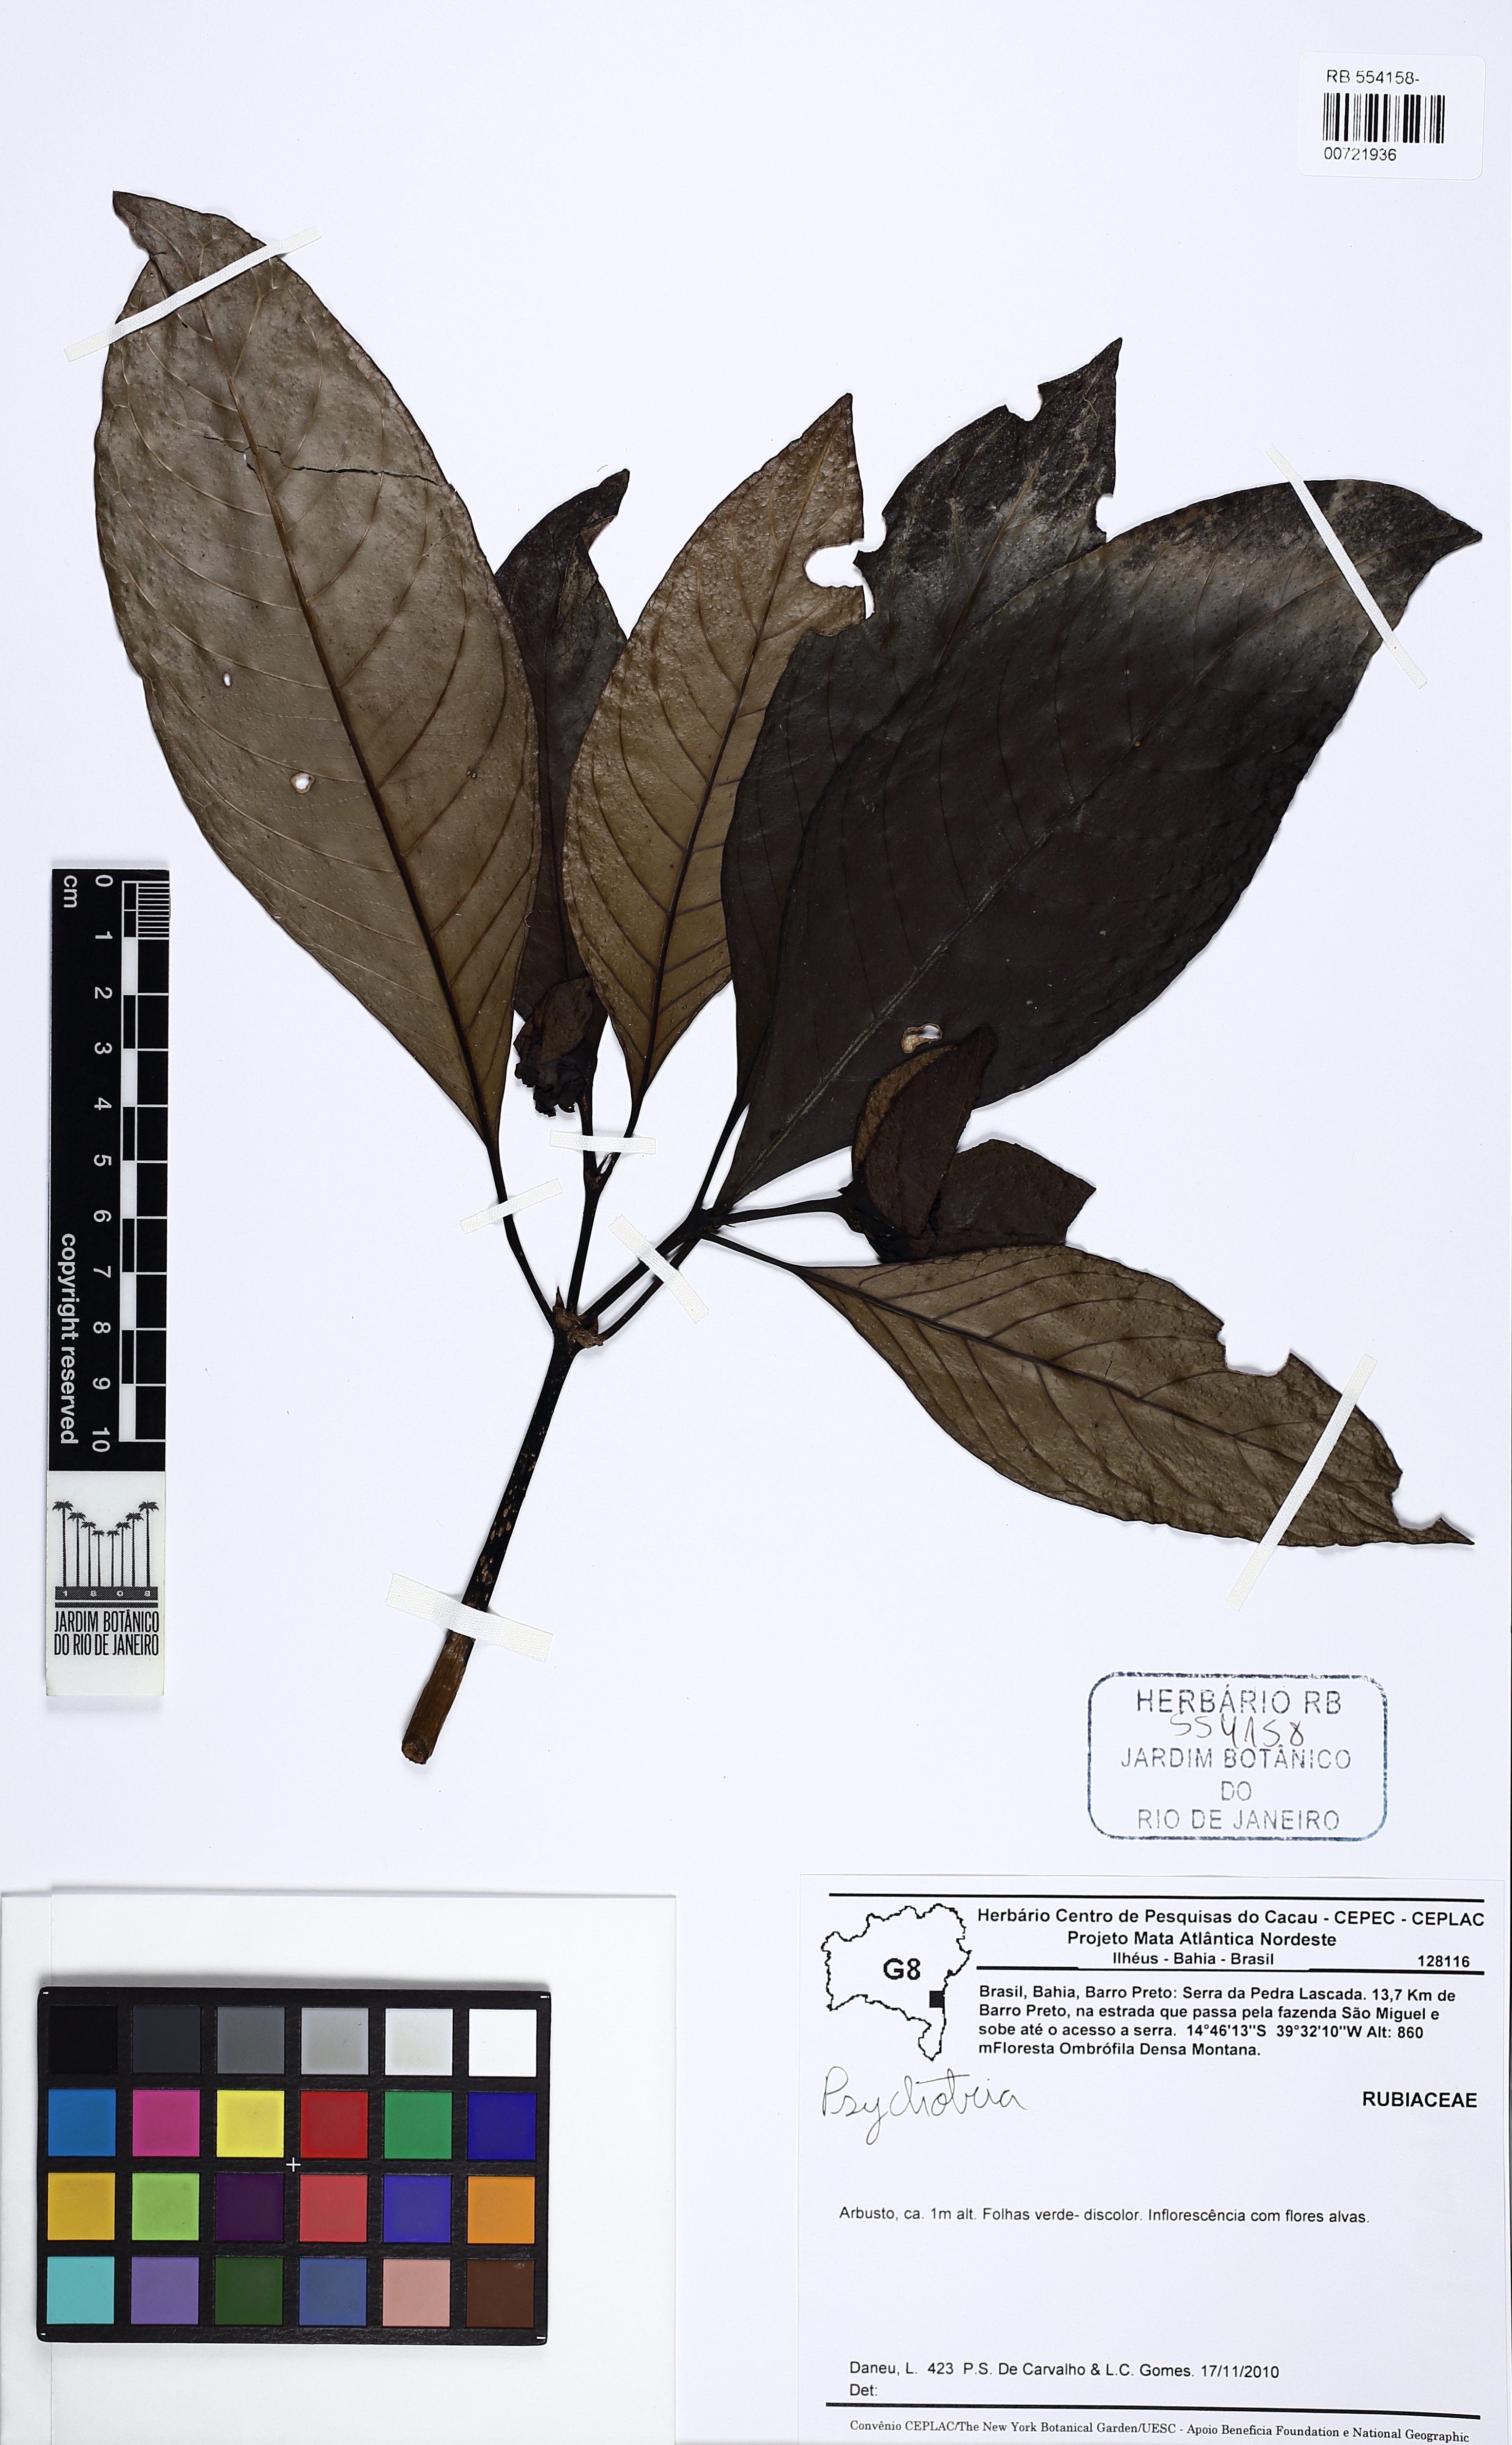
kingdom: Plantae
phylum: Tracheophyta
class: Magnoliopsida
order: Gentianales
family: Rubiaceae
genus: Carapichea
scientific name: Carapichea lucida
